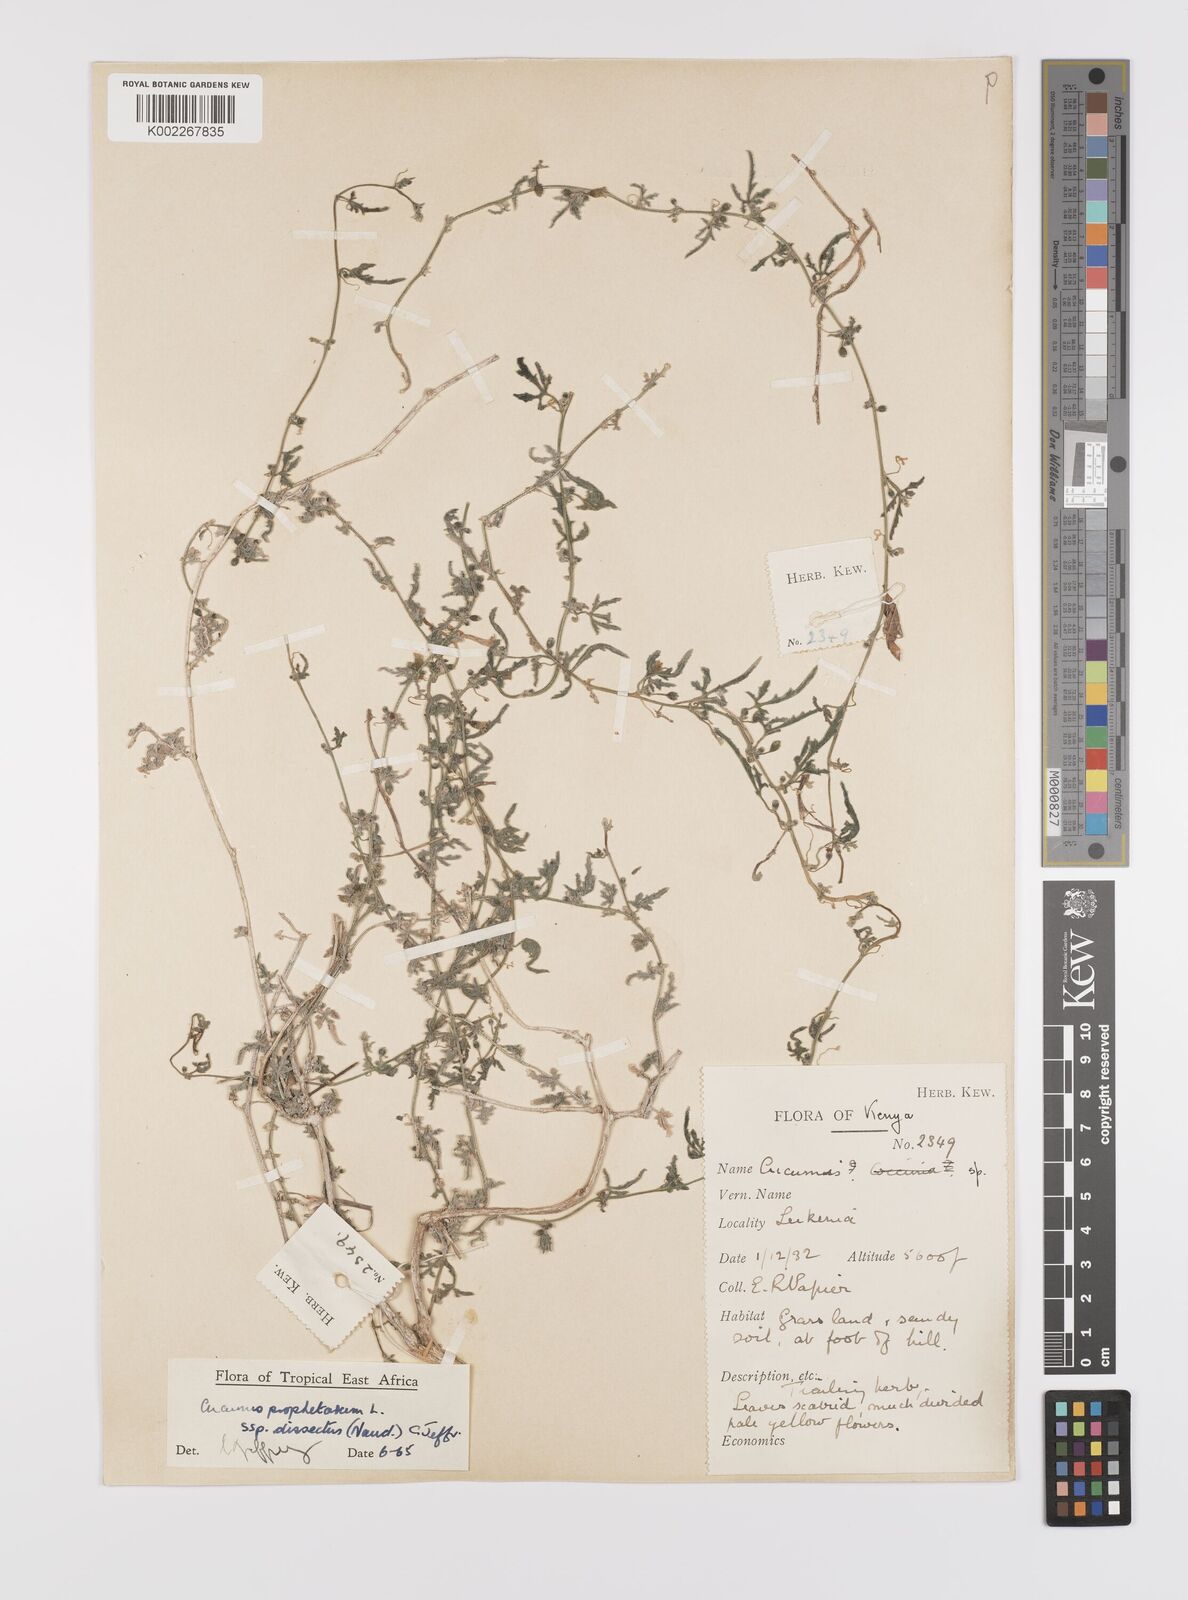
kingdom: Plantae
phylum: Tracheophyta
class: Magnoliopsida
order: Cucurbitales
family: Cucurbitaceae
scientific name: Cucurbitaceae
